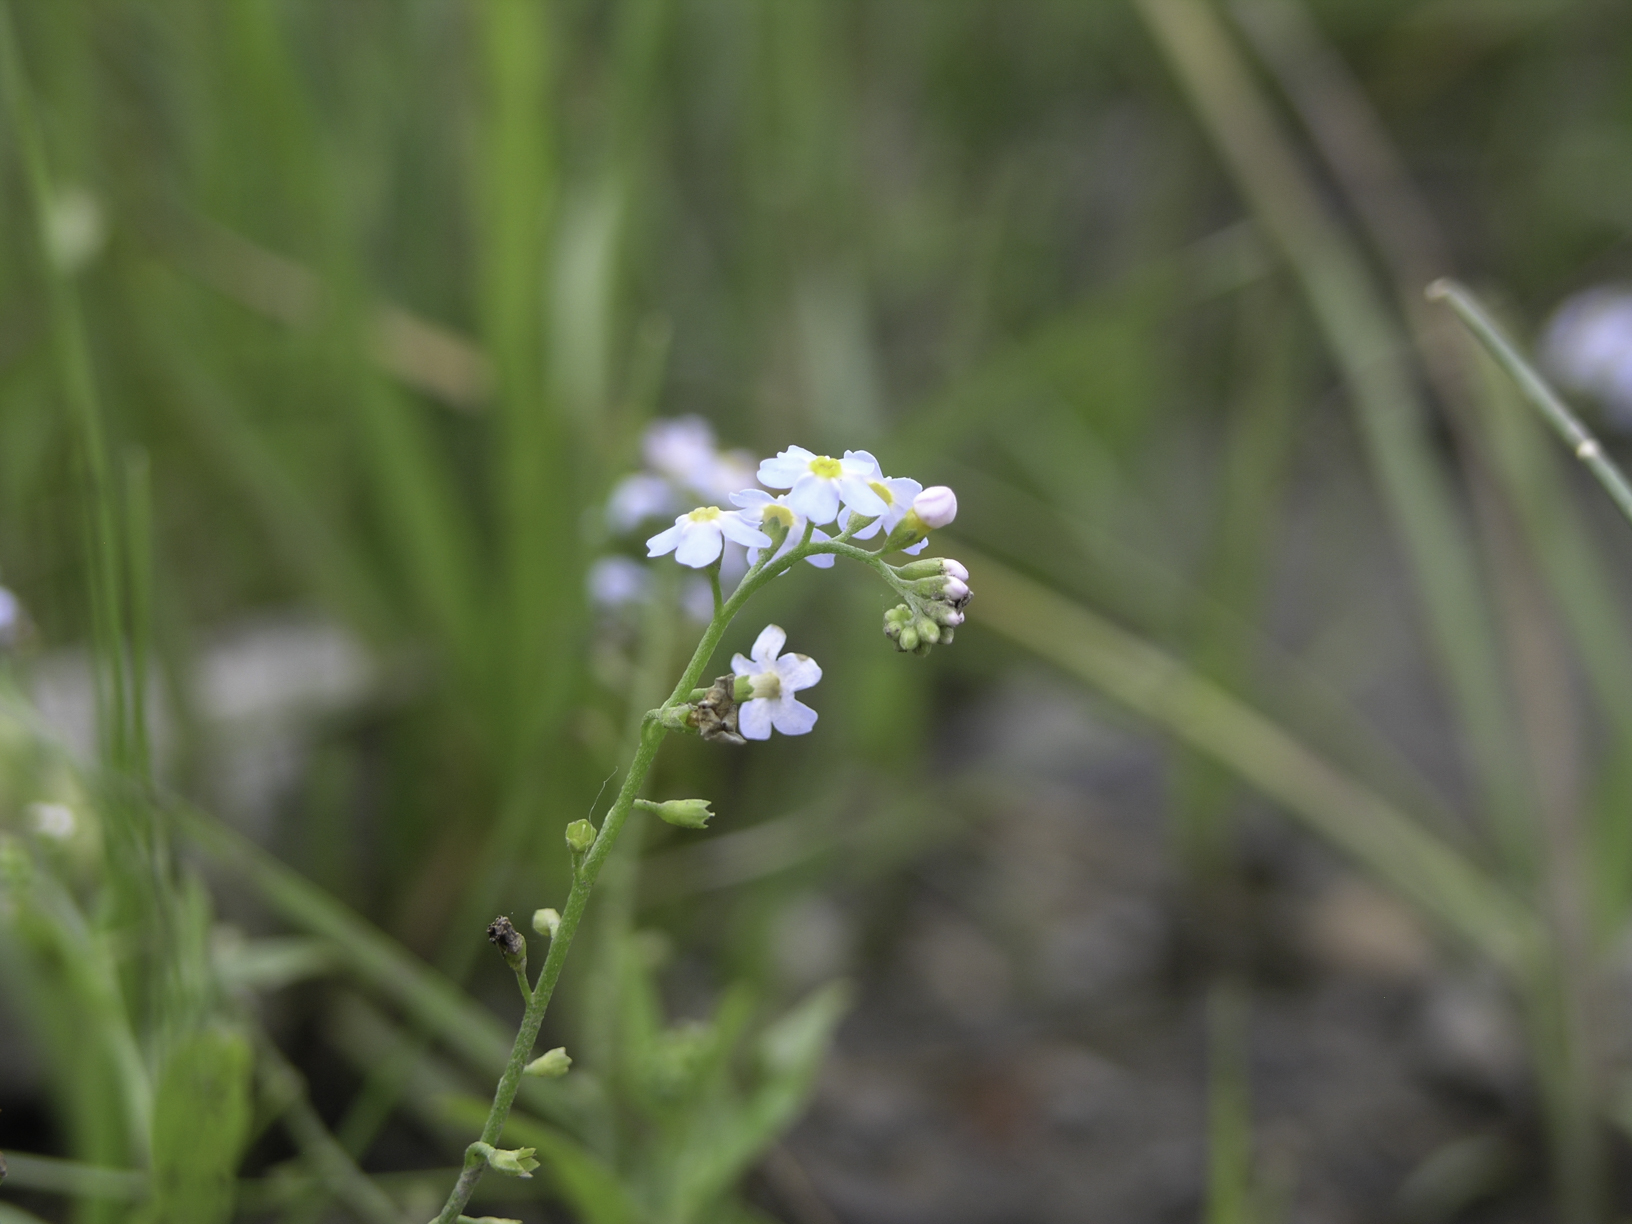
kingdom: Plantae
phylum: Tracheophyta
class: Magnoliopsida
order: Boraginales
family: Boraginaceae
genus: Myosotis
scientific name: Myosotis praecox
